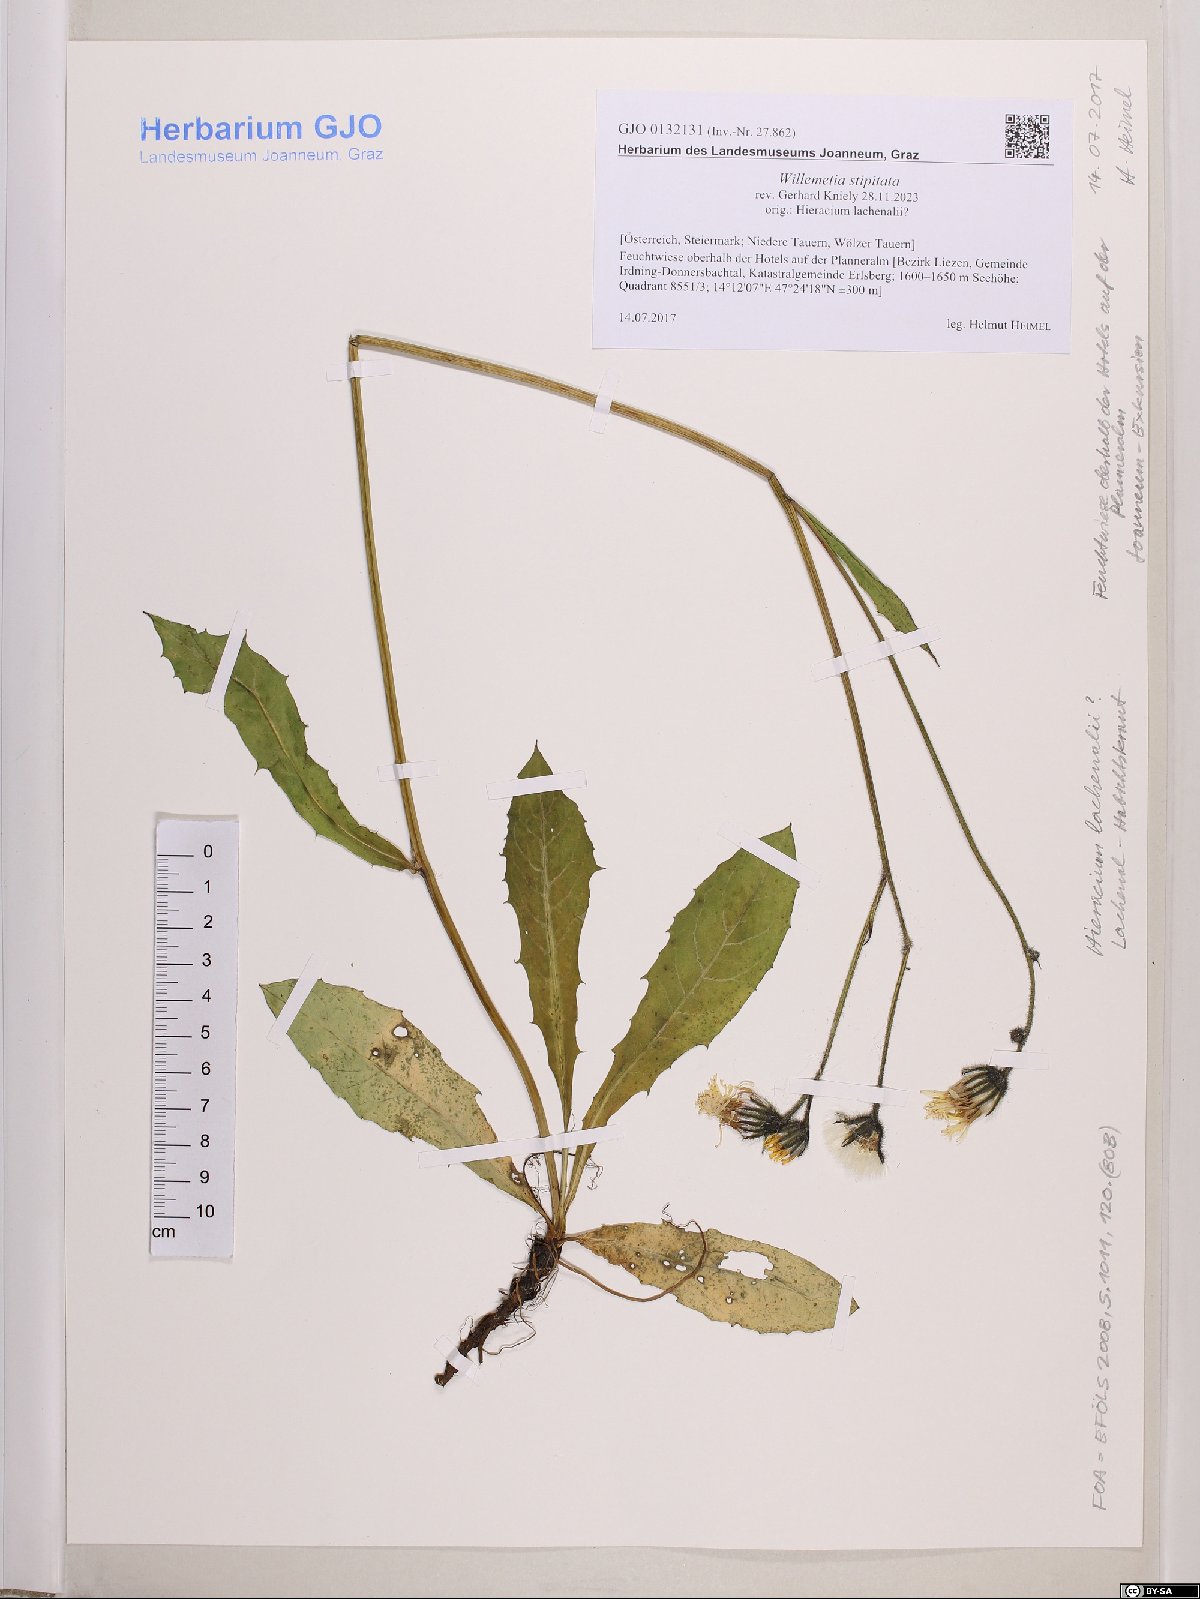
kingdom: Plantae
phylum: Tracheophyta
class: Magnoliopsida
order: Asterales
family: Asteraceae
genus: Willemetia
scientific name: Willemetia stipitata
